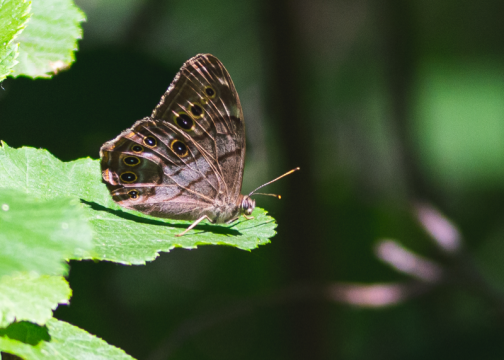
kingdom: Animalia
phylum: Arthropoda
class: Insecta
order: Lepidoptera
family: Nymphalidae
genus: Lethe
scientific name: Lethe anthedon
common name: Northern Pearly-Eye
